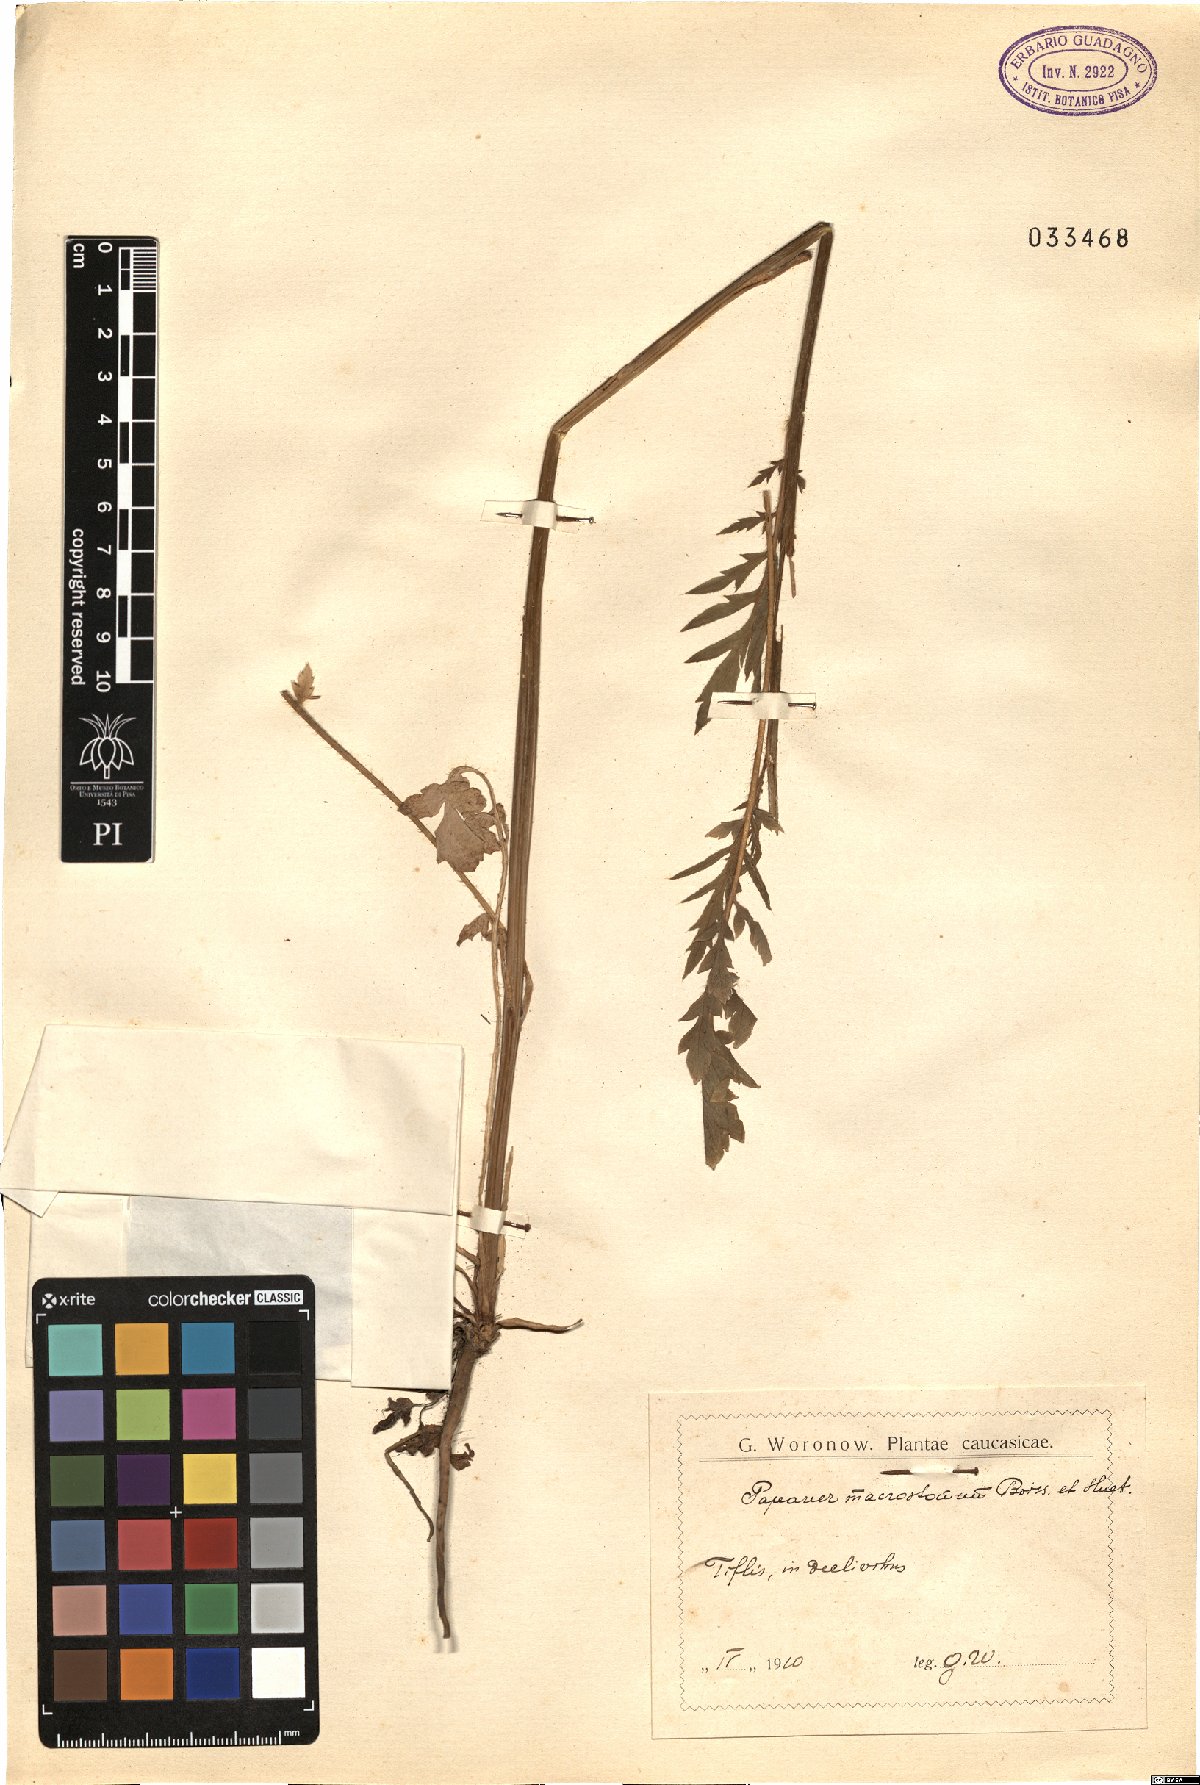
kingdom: Plantae
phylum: Tracheophyta
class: Magnoliopsida
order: Ranunculales
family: Papaveraceae
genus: Papaver
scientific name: Papaver macrostomum
